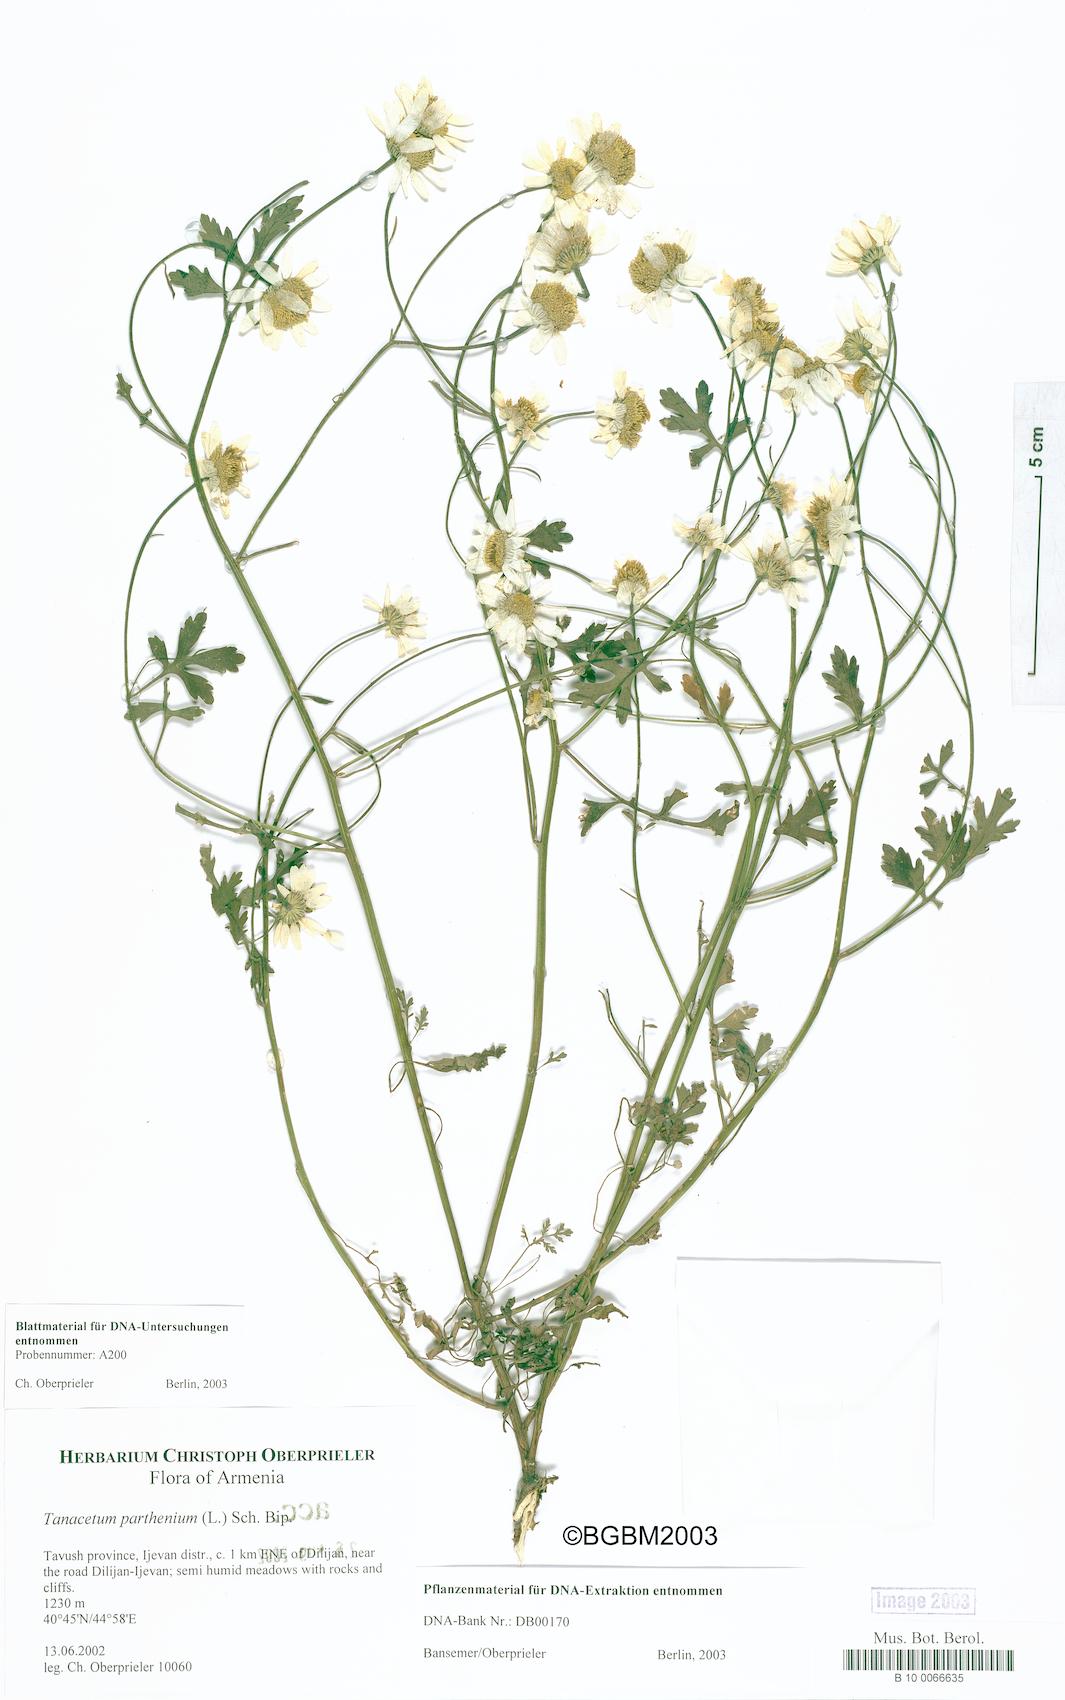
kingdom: Plantae
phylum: Tracheophyta
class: Magnoliopsida
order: Asterales
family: Asteraceae
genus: Tanacetum
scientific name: Tanacetum parthenium
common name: Feverfew
